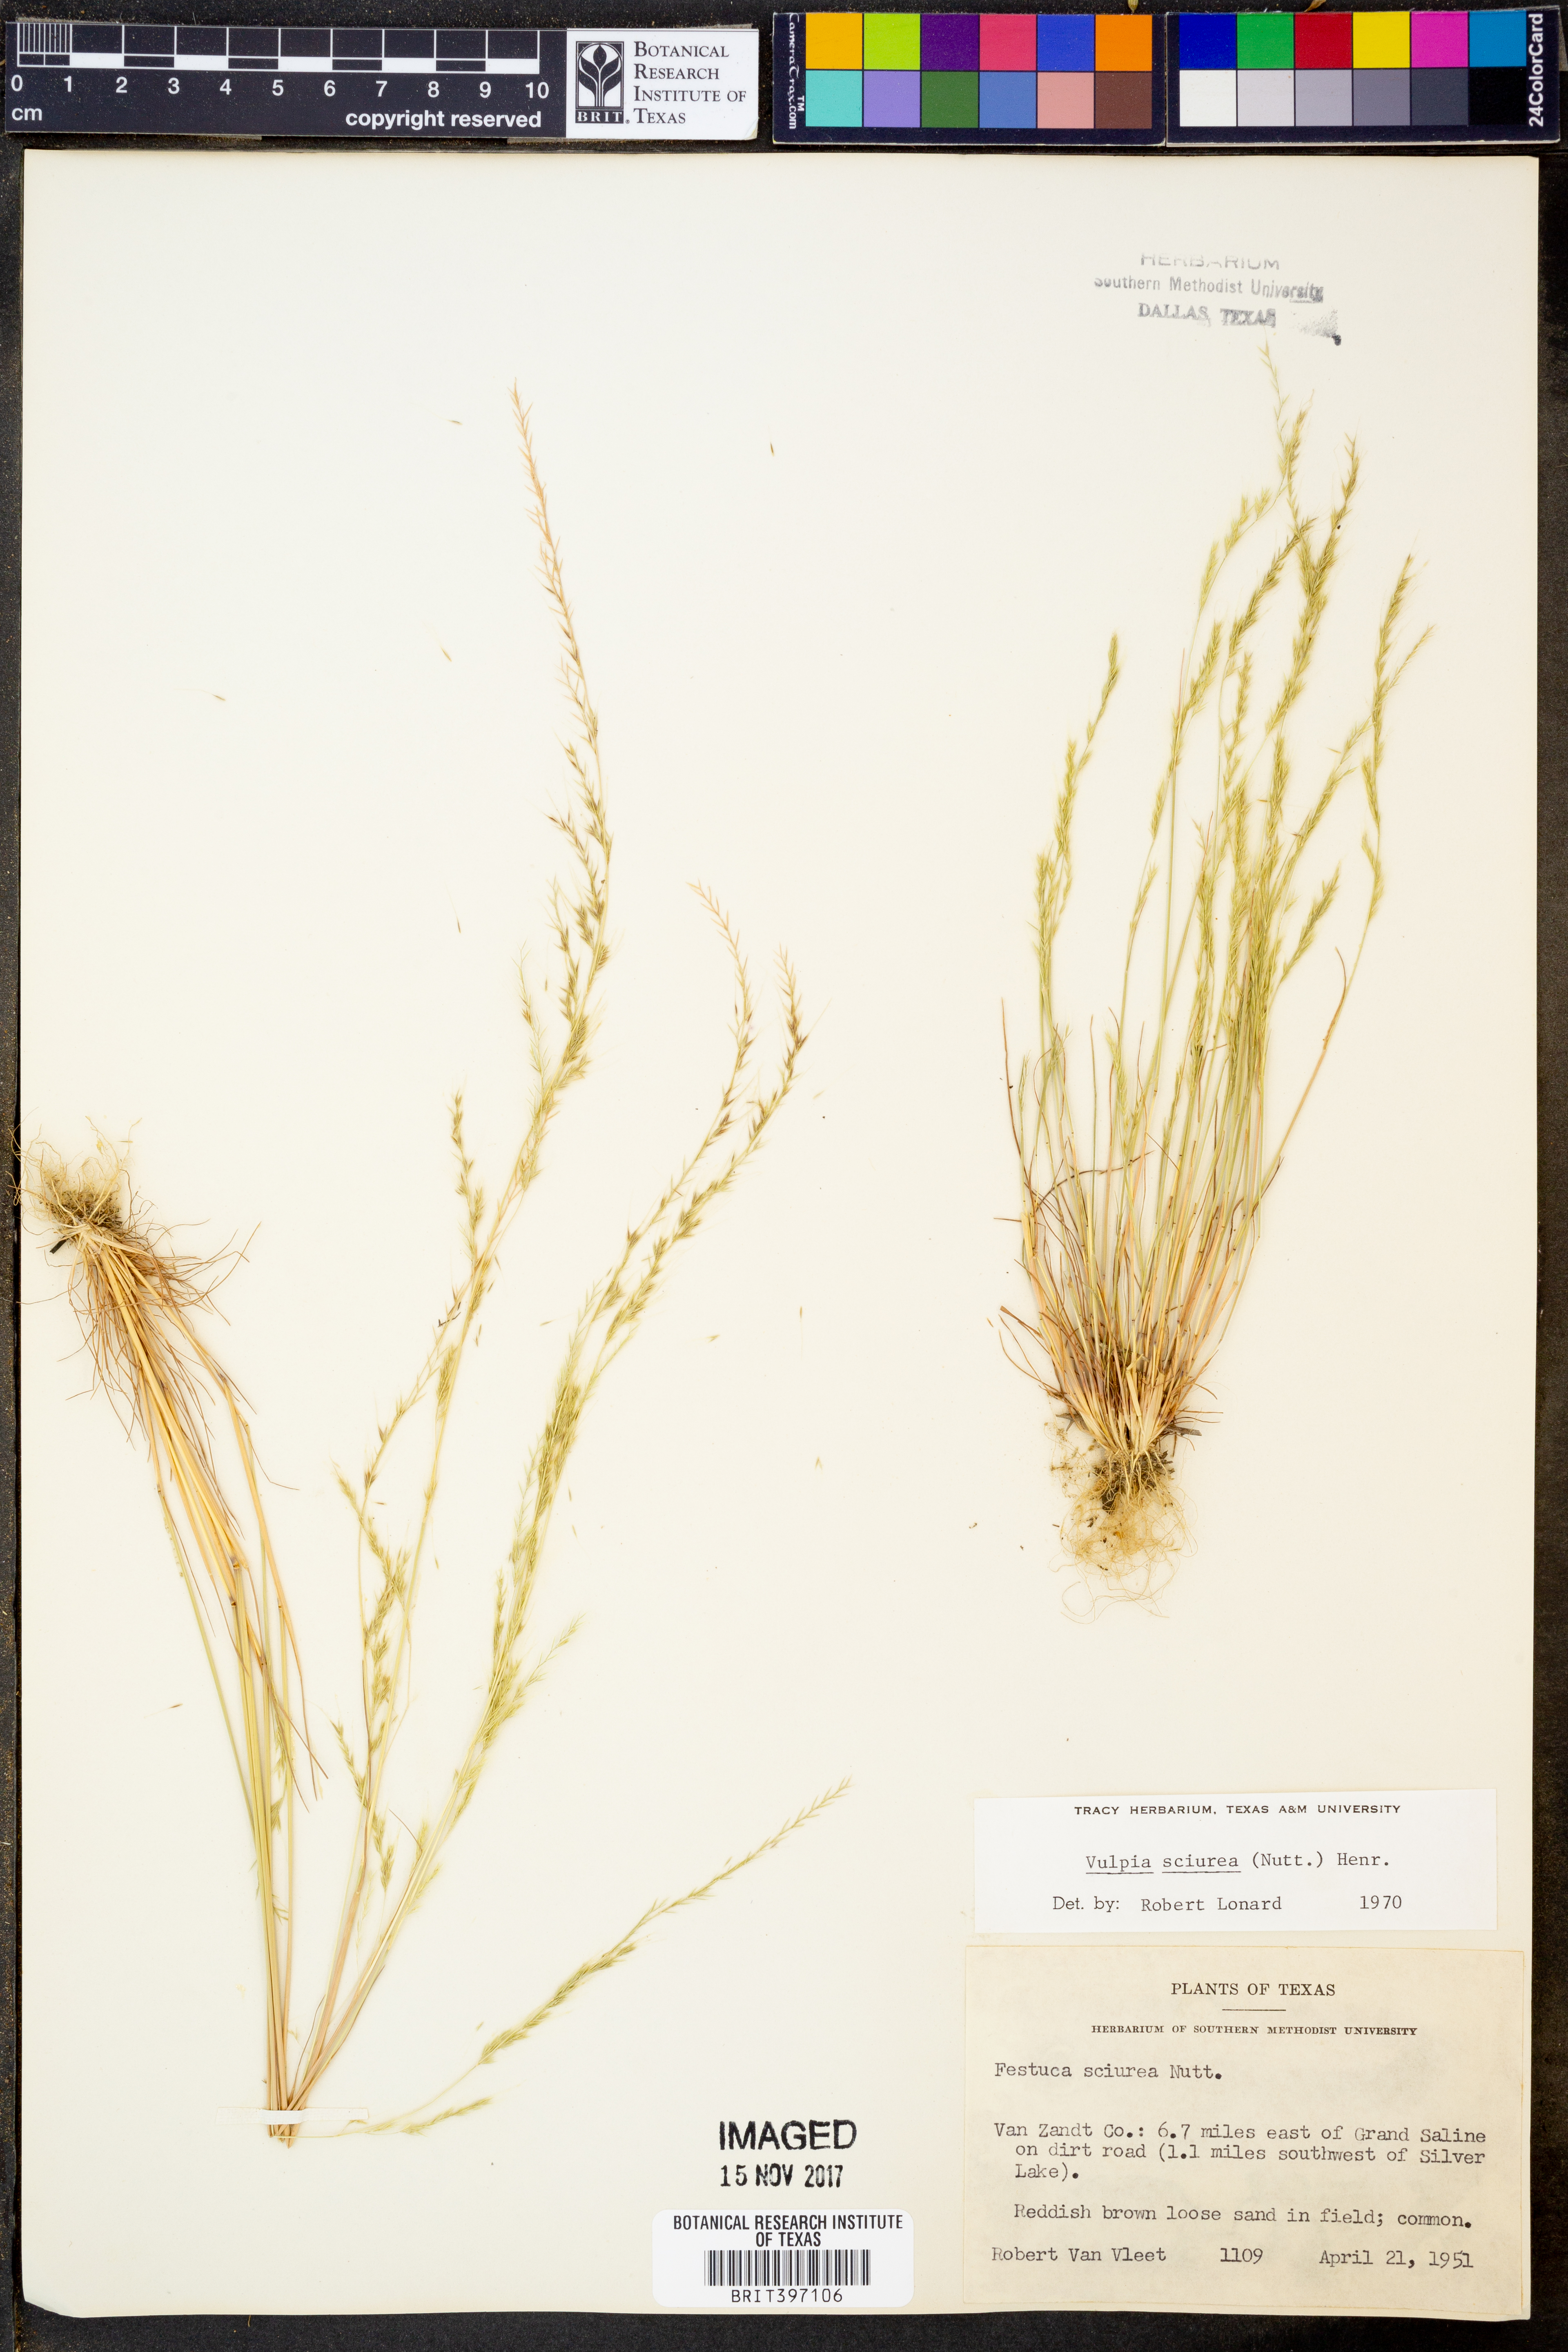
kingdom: Plantae
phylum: Tracheophyta
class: Liliopsida
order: Poales
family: Poaceae
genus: Festuca
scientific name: Festuca sciurea
